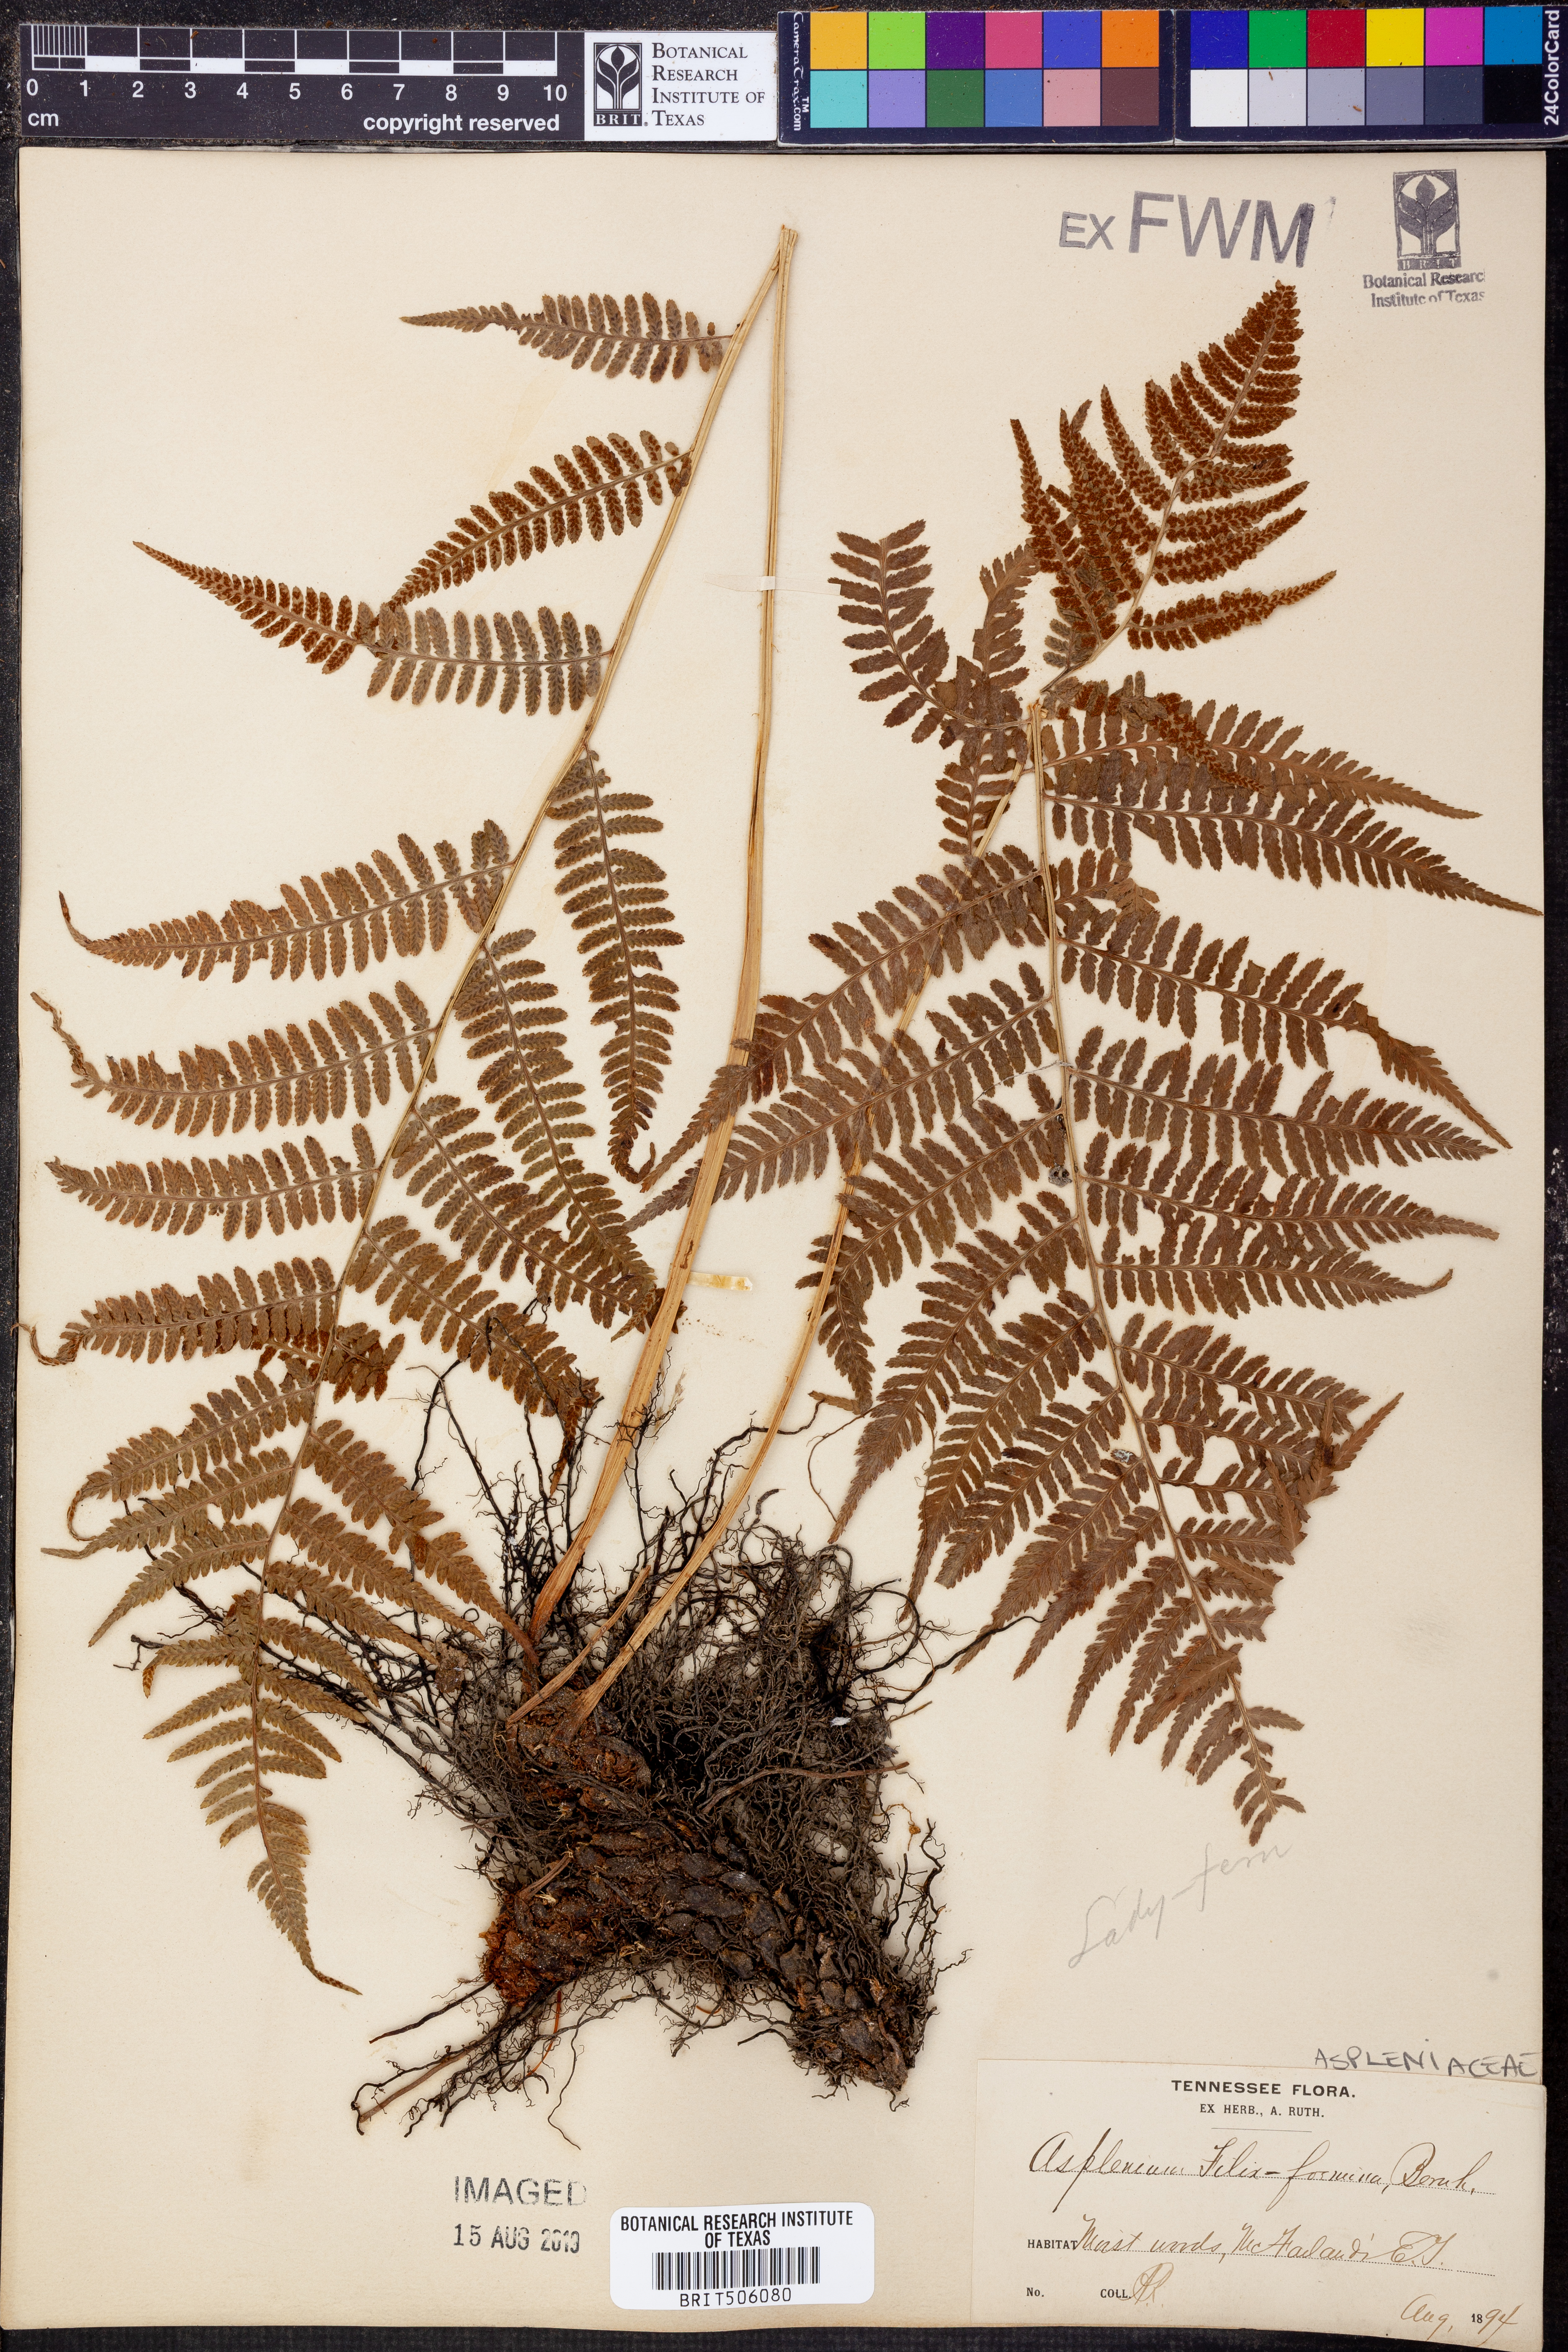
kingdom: Plantae
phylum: Tracheophyta
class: Polypodiopsida
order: Polypodiales
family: Athyriaceae
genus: Athyrium
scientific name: Athyrium filix-femina
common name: Lady fern
